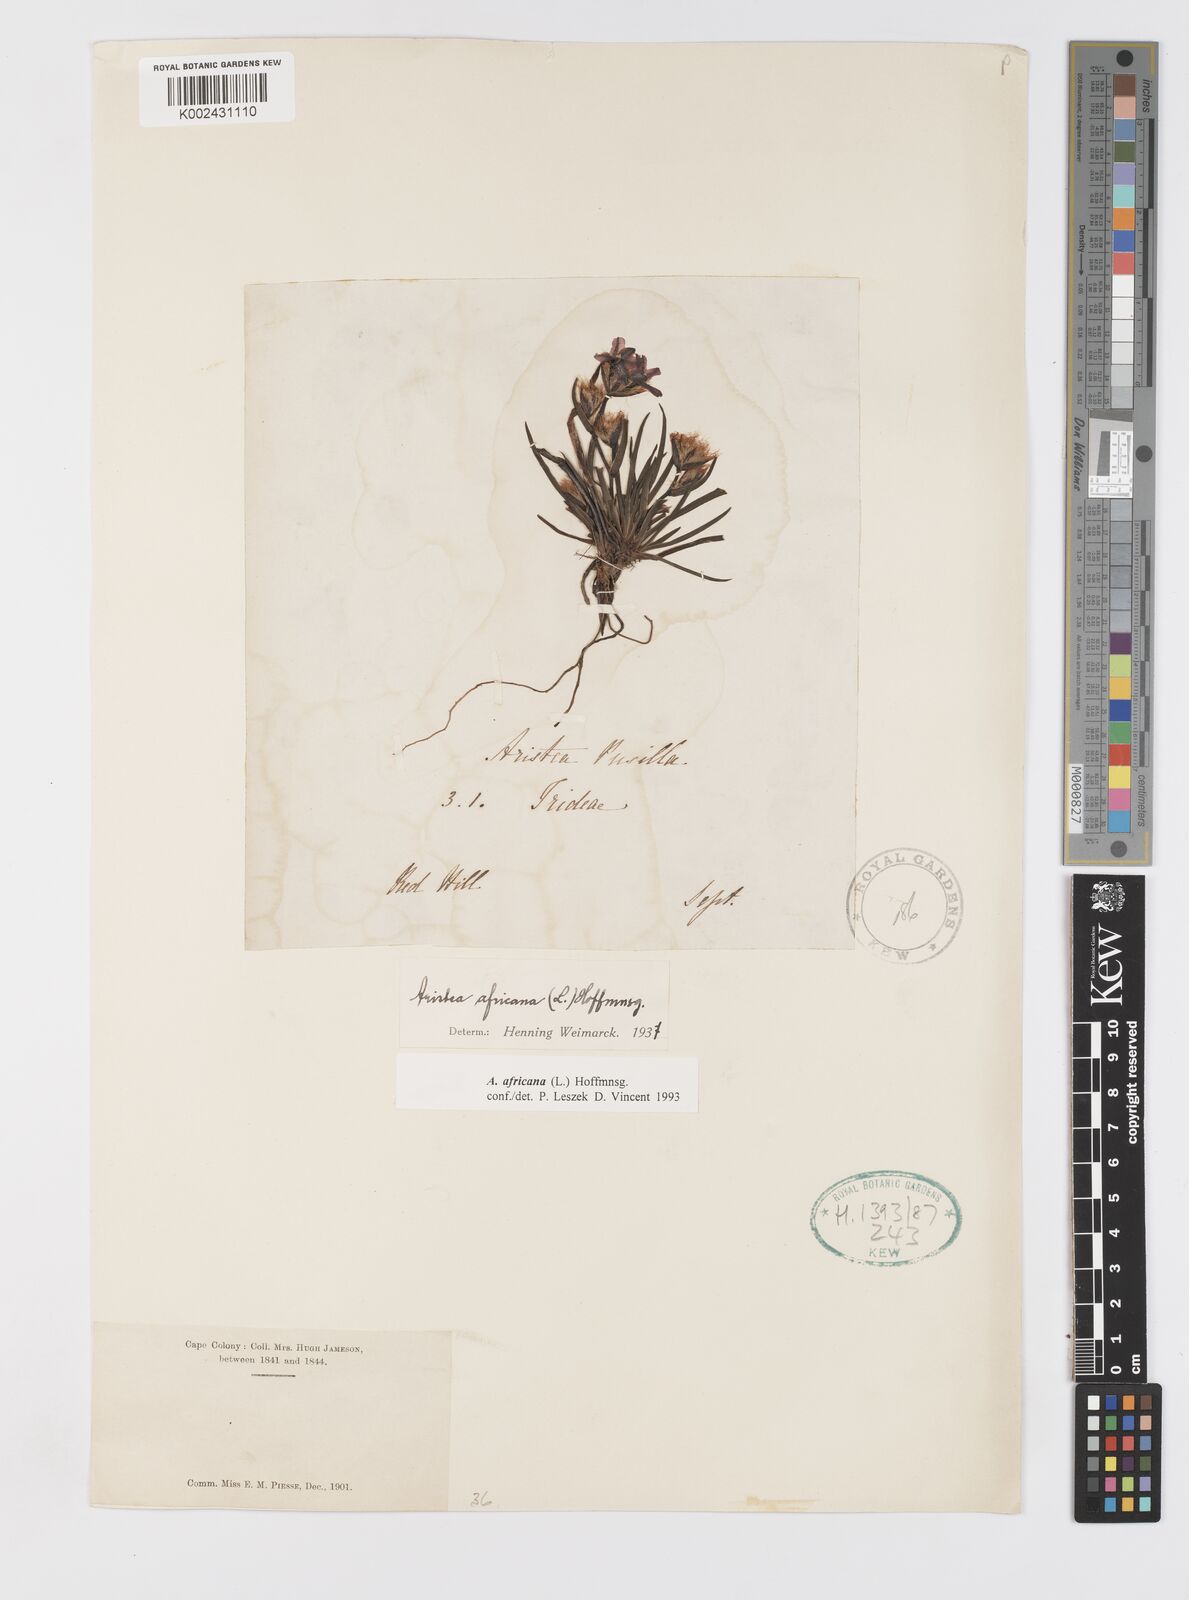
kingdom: Plantae
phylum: Tracheophyta
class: Liliopsida
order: Asparagales
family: Iridaceae
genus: Aristea
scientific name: Aristea africana
